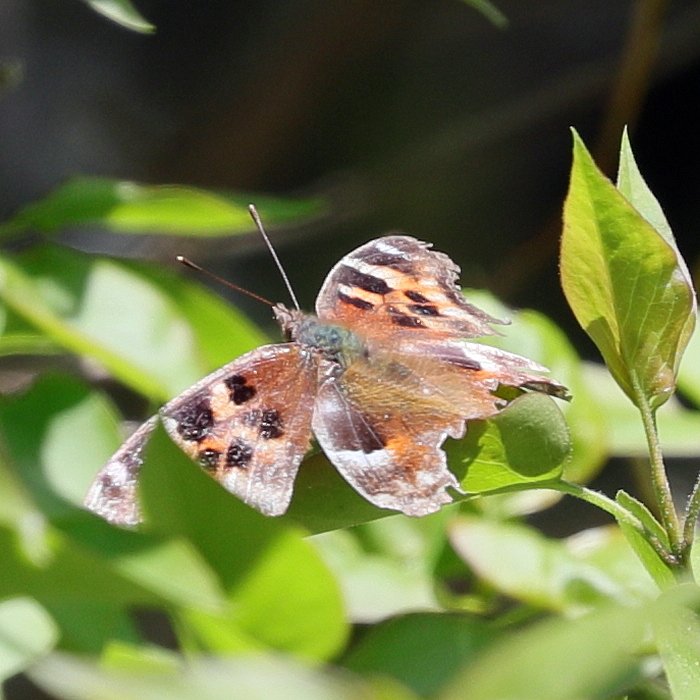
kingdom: Animalia
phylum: Arthropoda
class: Insecta
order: Lepidoptera
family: Nymphalidae
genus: Polygonia
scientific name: Polygonia vaualbum
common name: Compton Tortoiseshell
